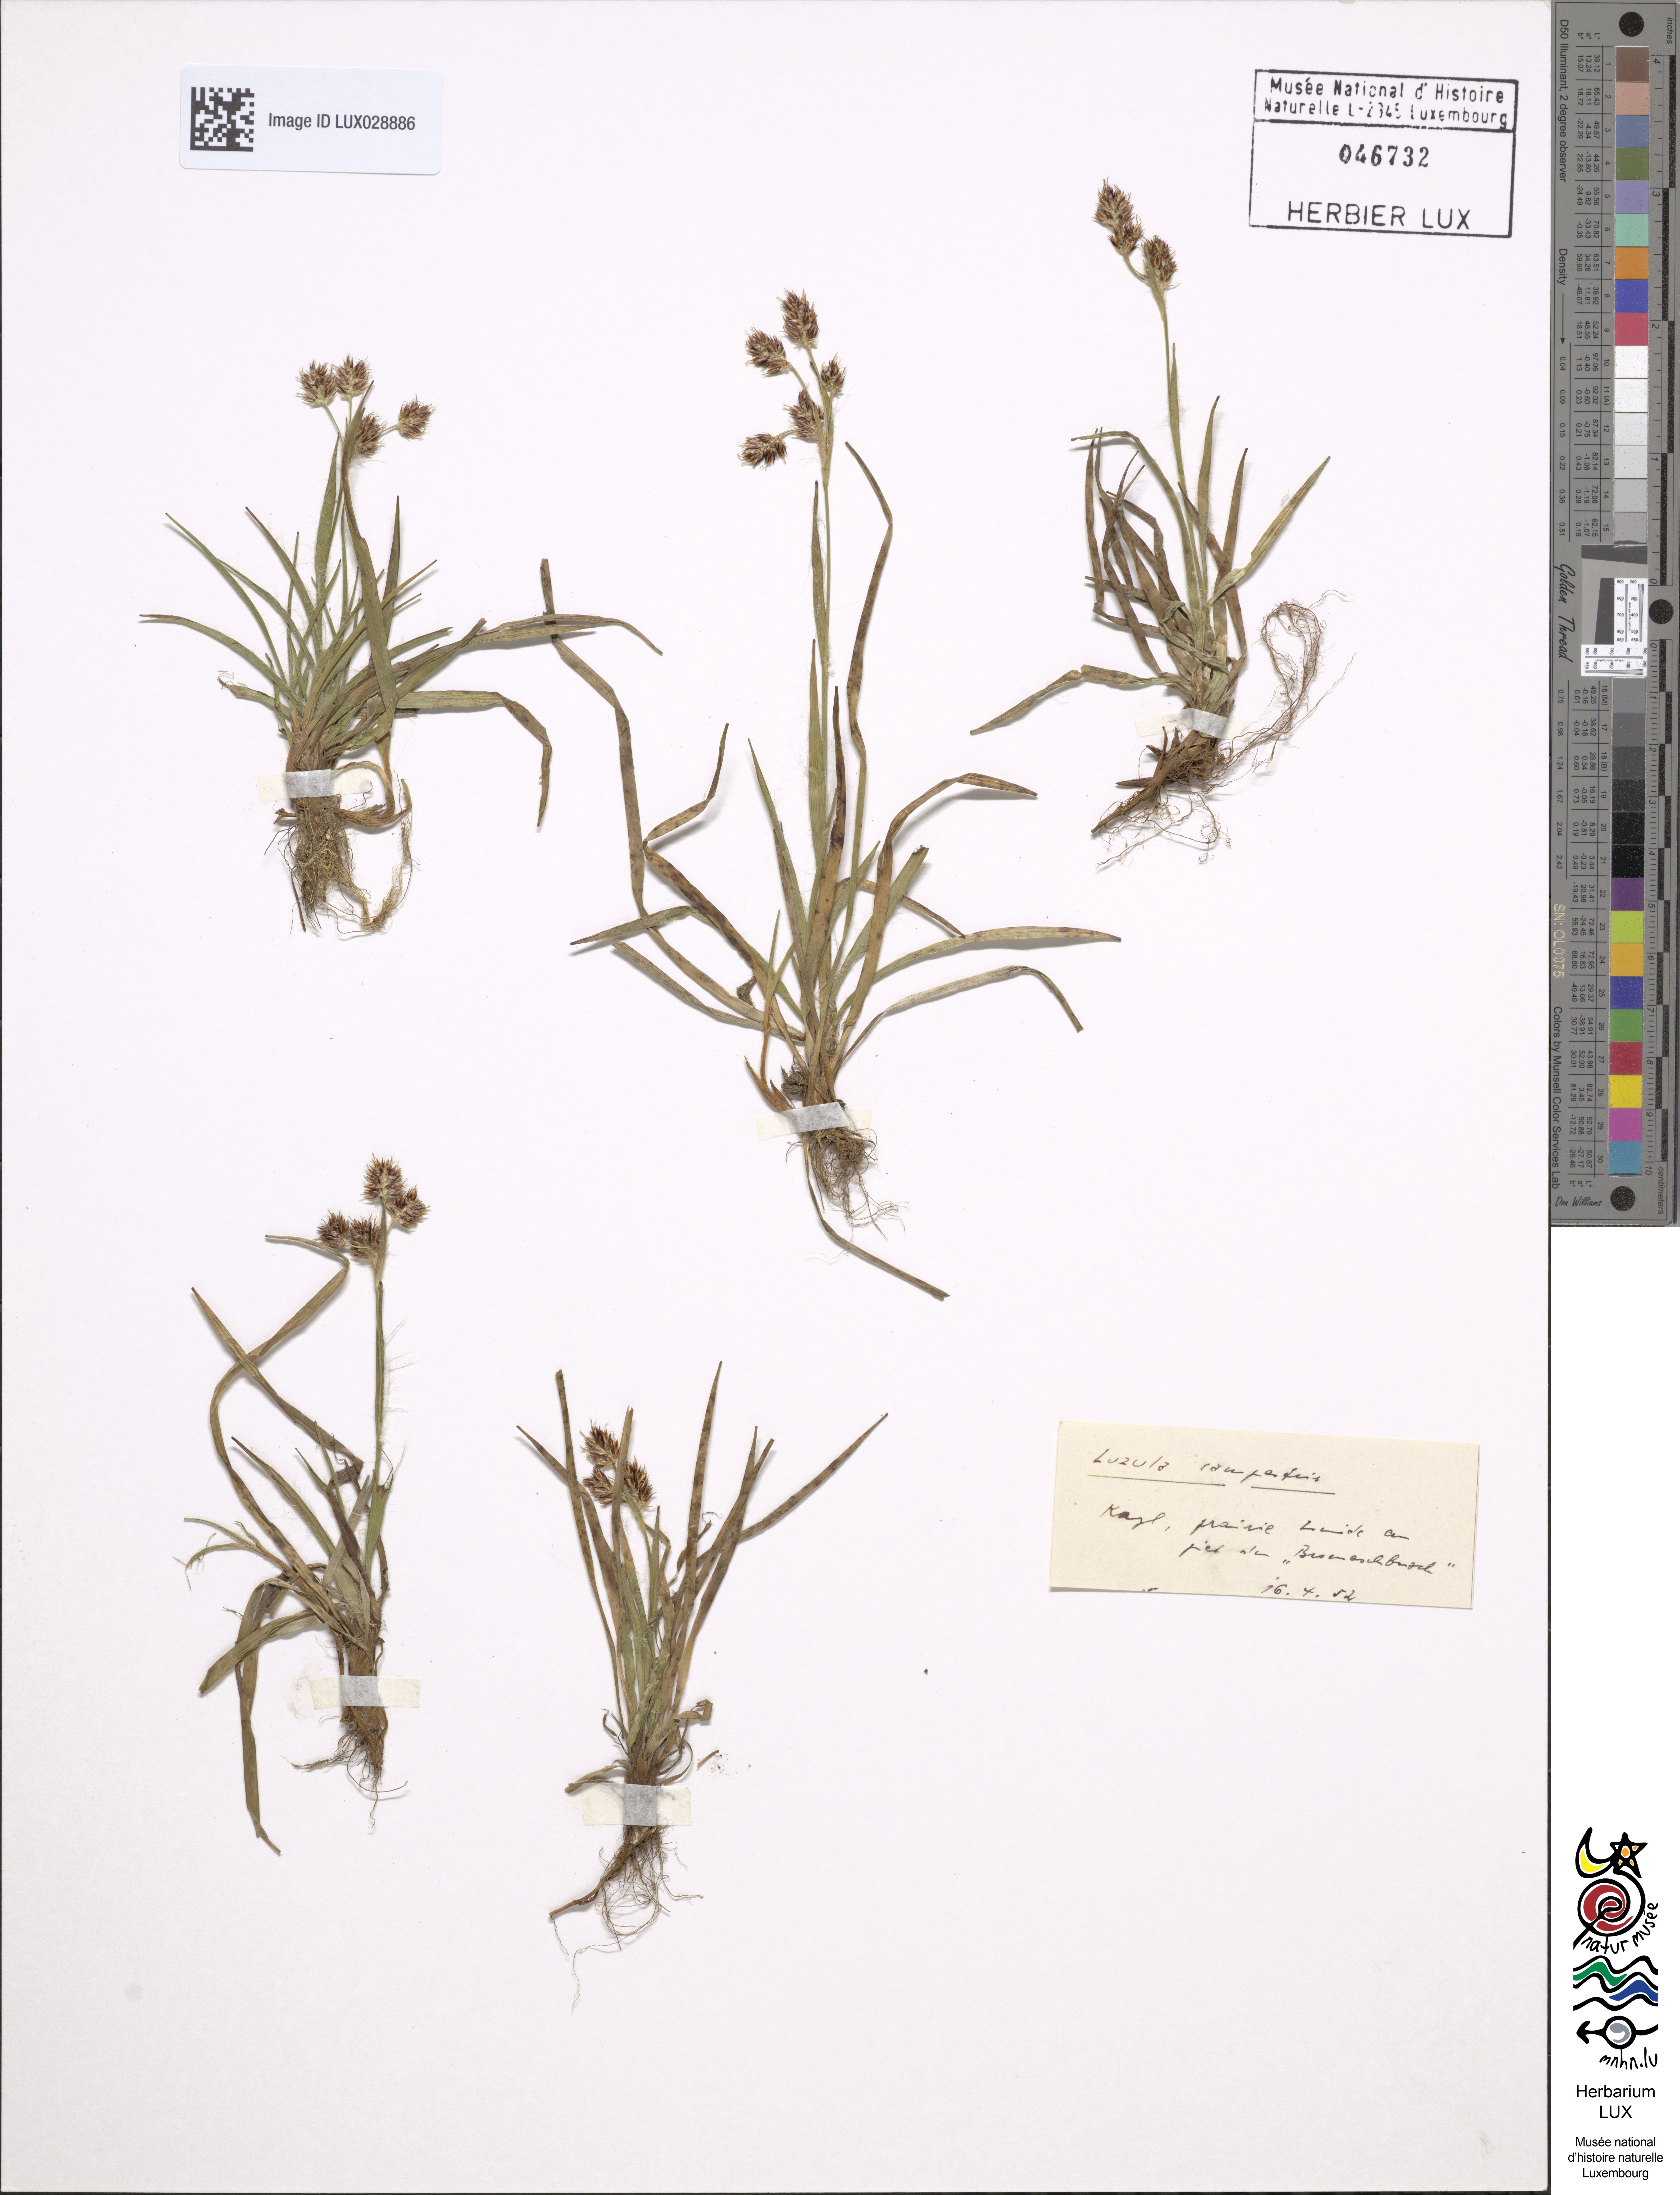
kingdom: Plantae
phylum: Tracheophyta
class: Liliopsida
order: Poales
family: Juncaceae
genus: Luzula
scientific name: Luzula campestris
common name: Field wood-rush
